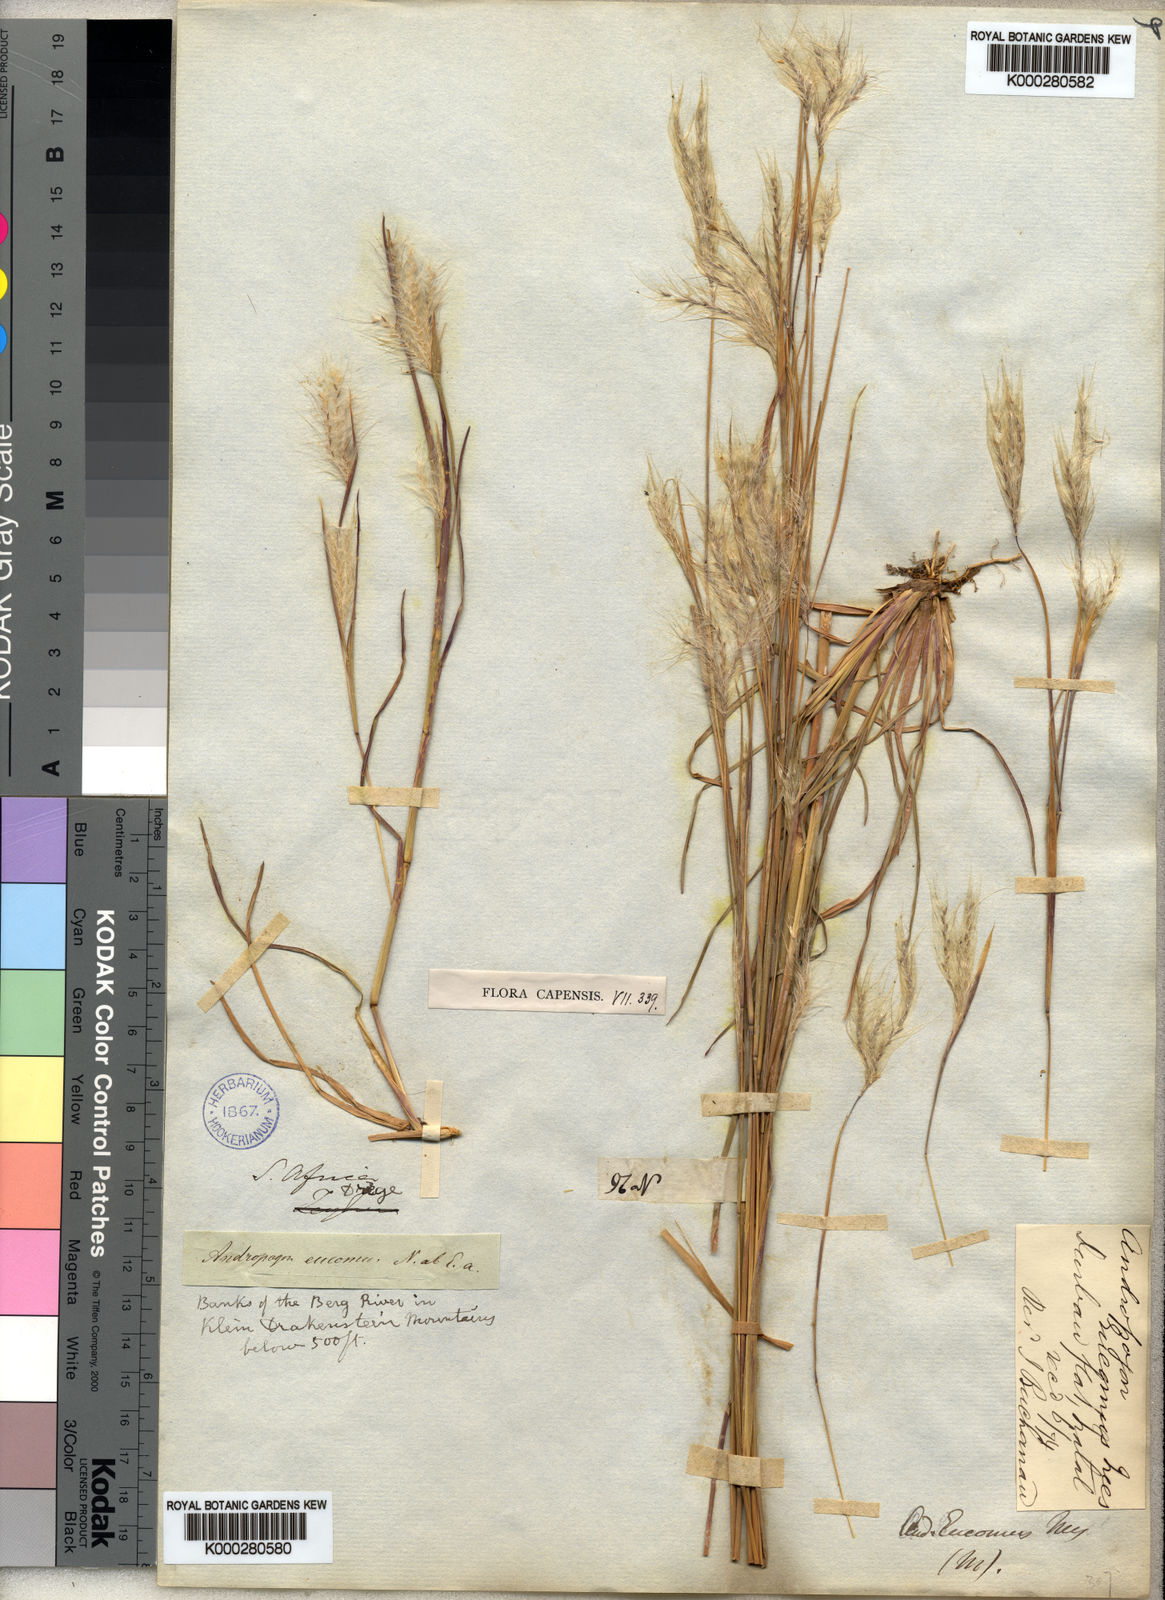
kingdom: Plantae
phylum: Tracheophyta
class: Liliopsida
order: Poales
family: Poaceae
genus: Andropogon
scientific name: Andropogon eucomus
